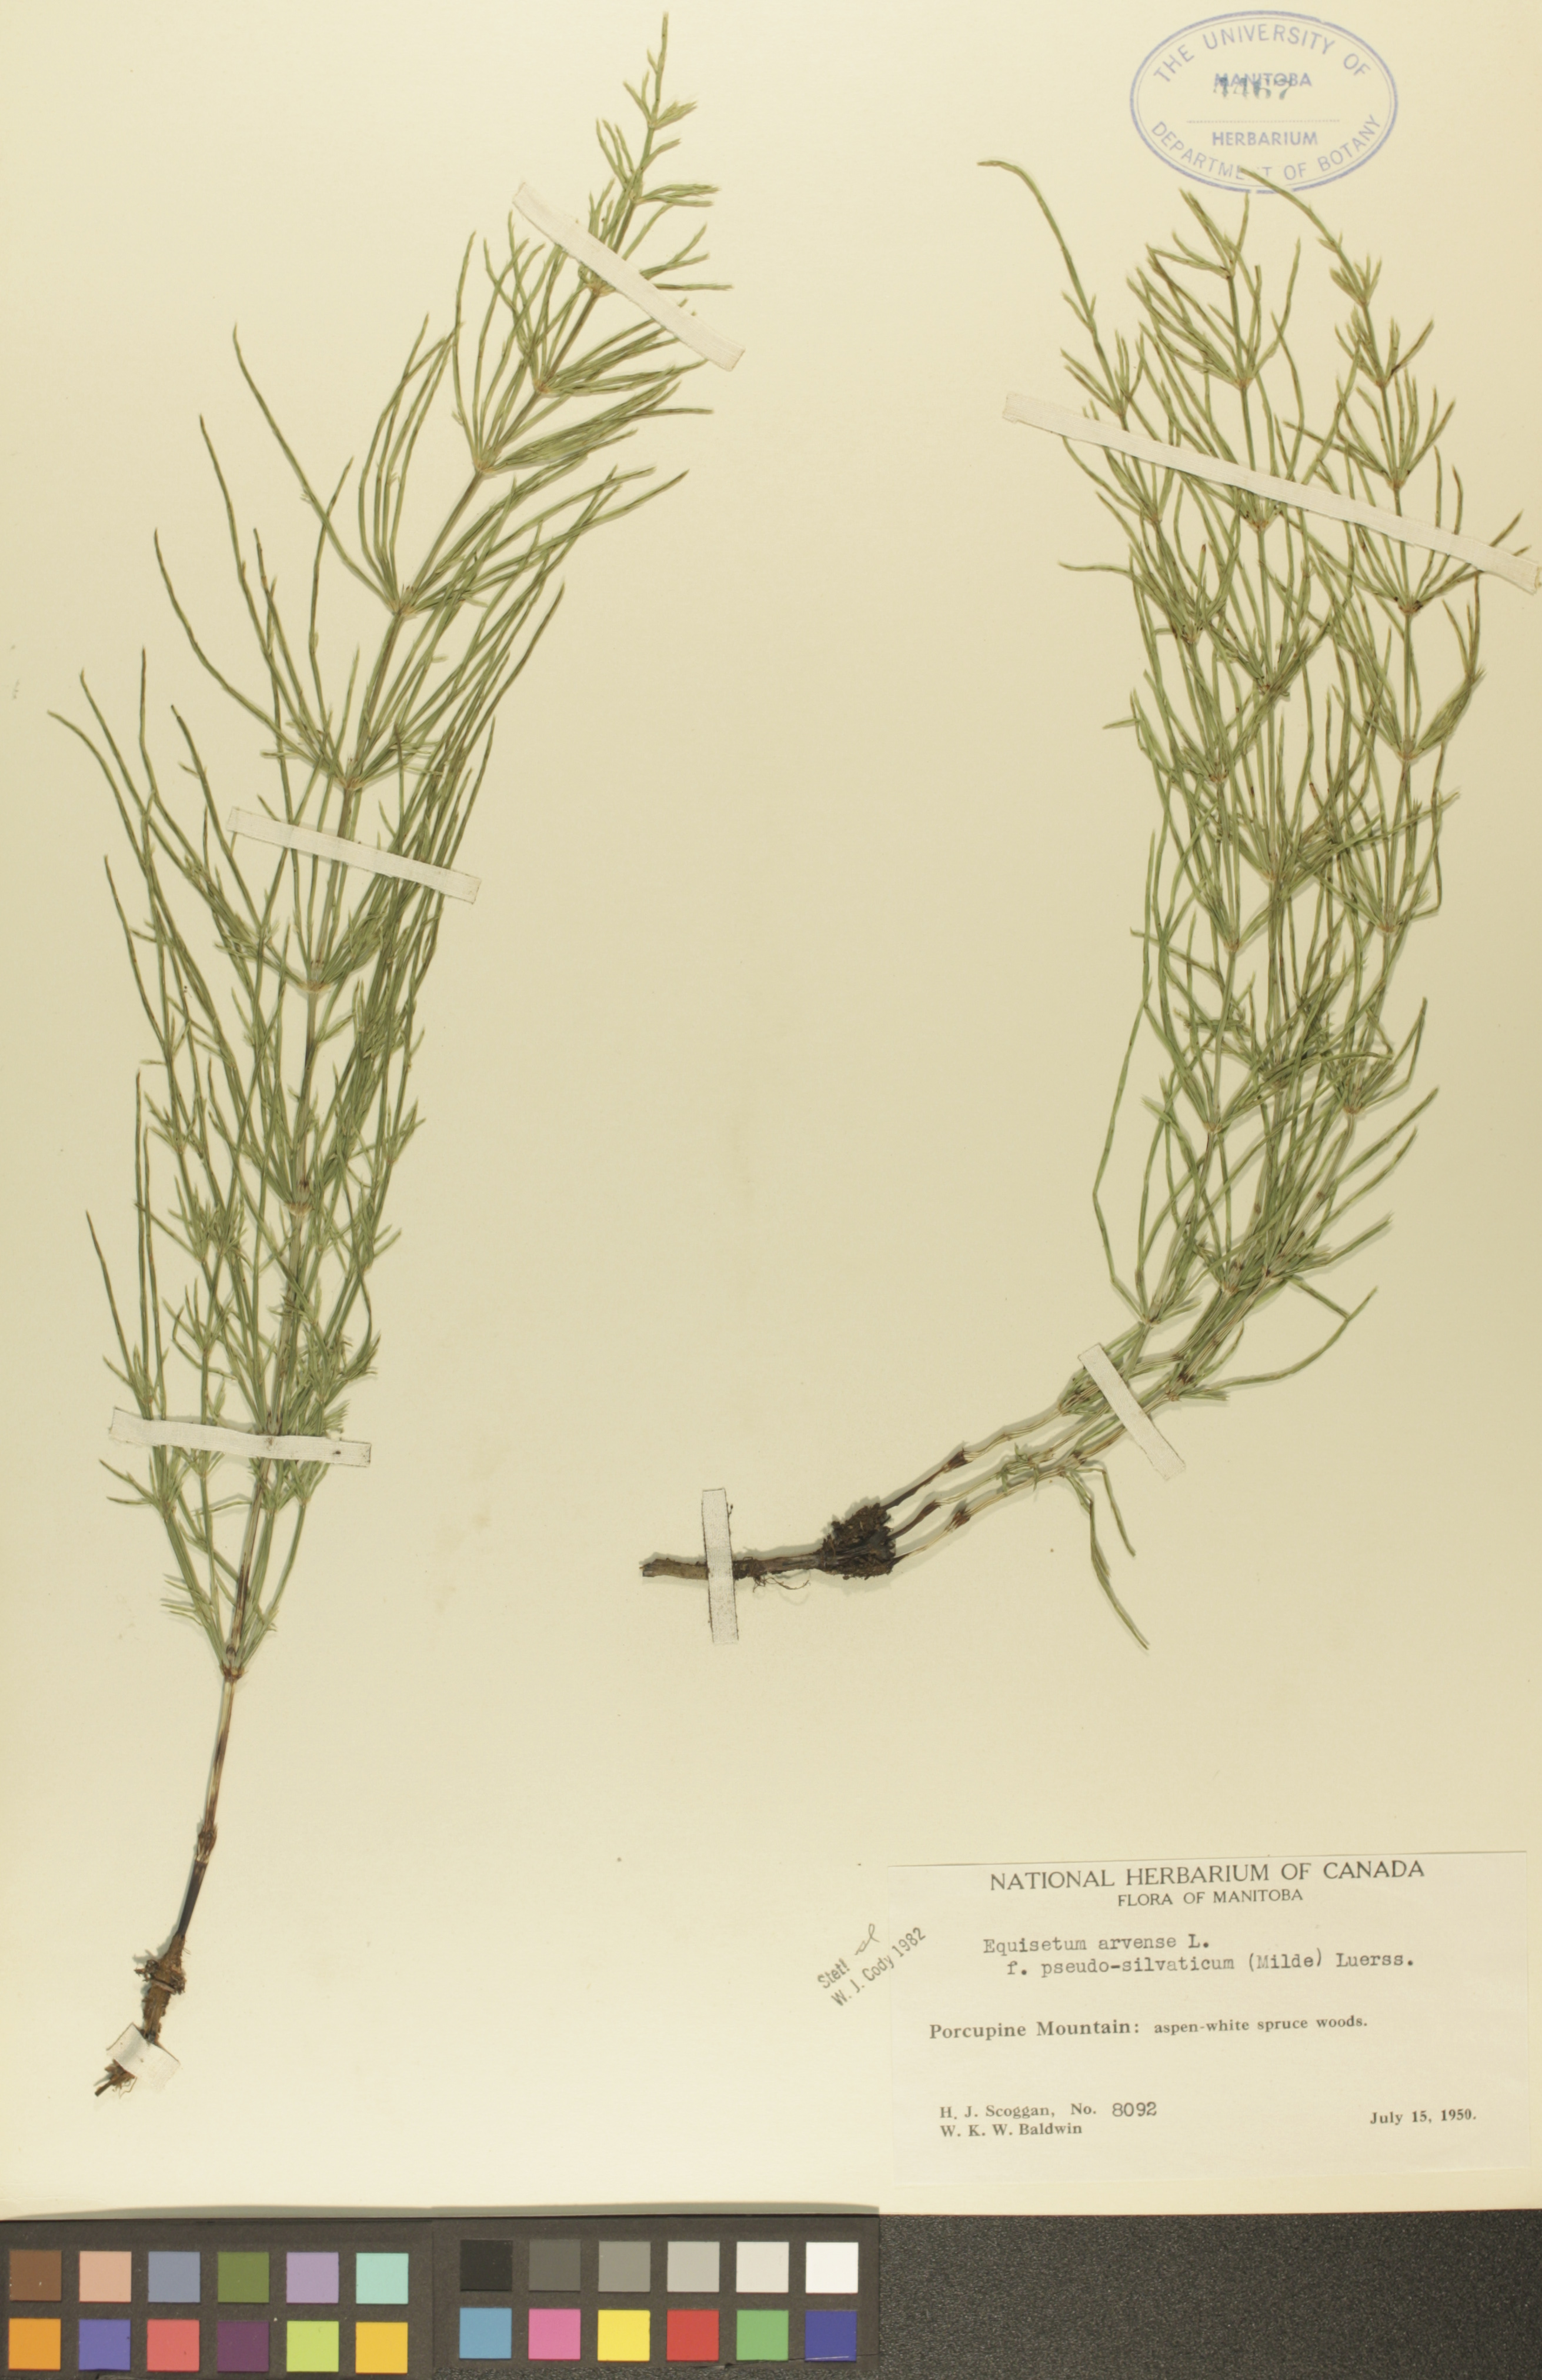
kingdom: Plantae
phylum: Tracheophyta
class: Polypodiopsida
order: Equisetales
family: Equisetaceae
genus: Equisetum
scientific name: Equisetum arvense
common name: Field horsetail
